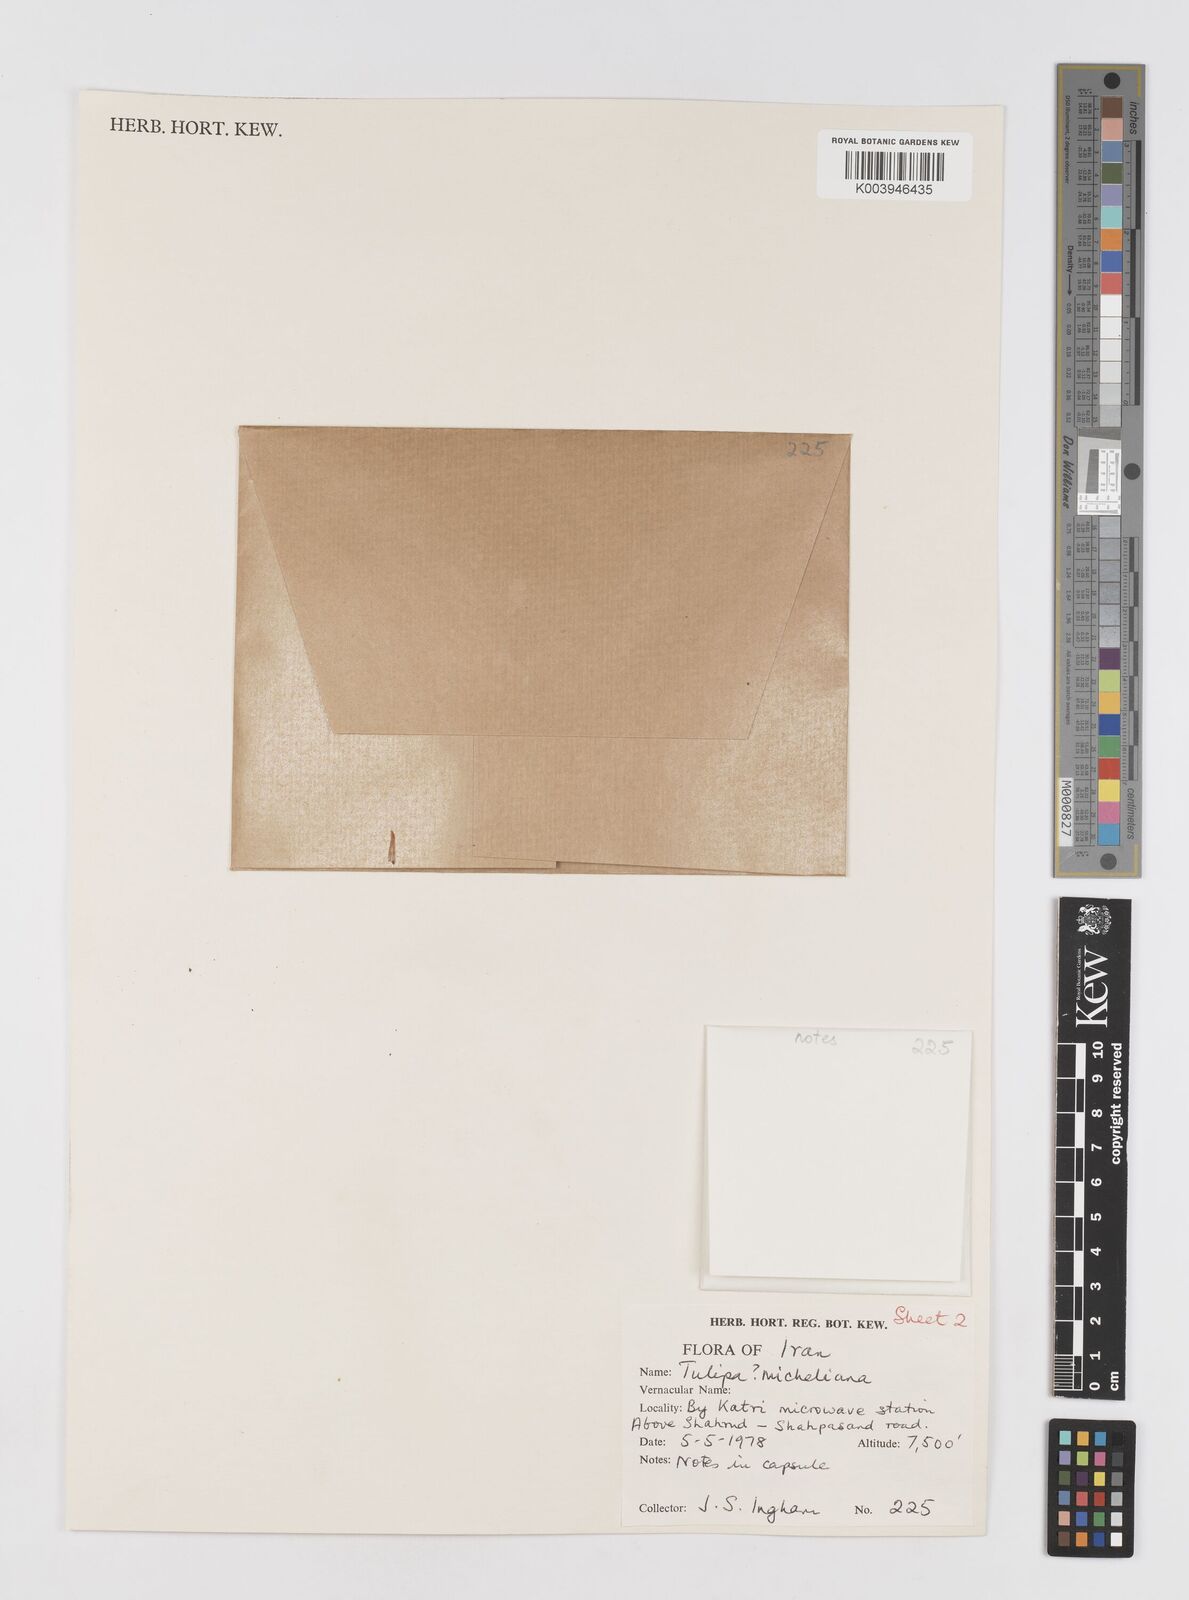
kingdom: Plantae
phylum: Tracheophyta
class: Liliopsida
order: Liliales
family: Liliaceae
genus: Tulipa
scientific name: Tulipa
